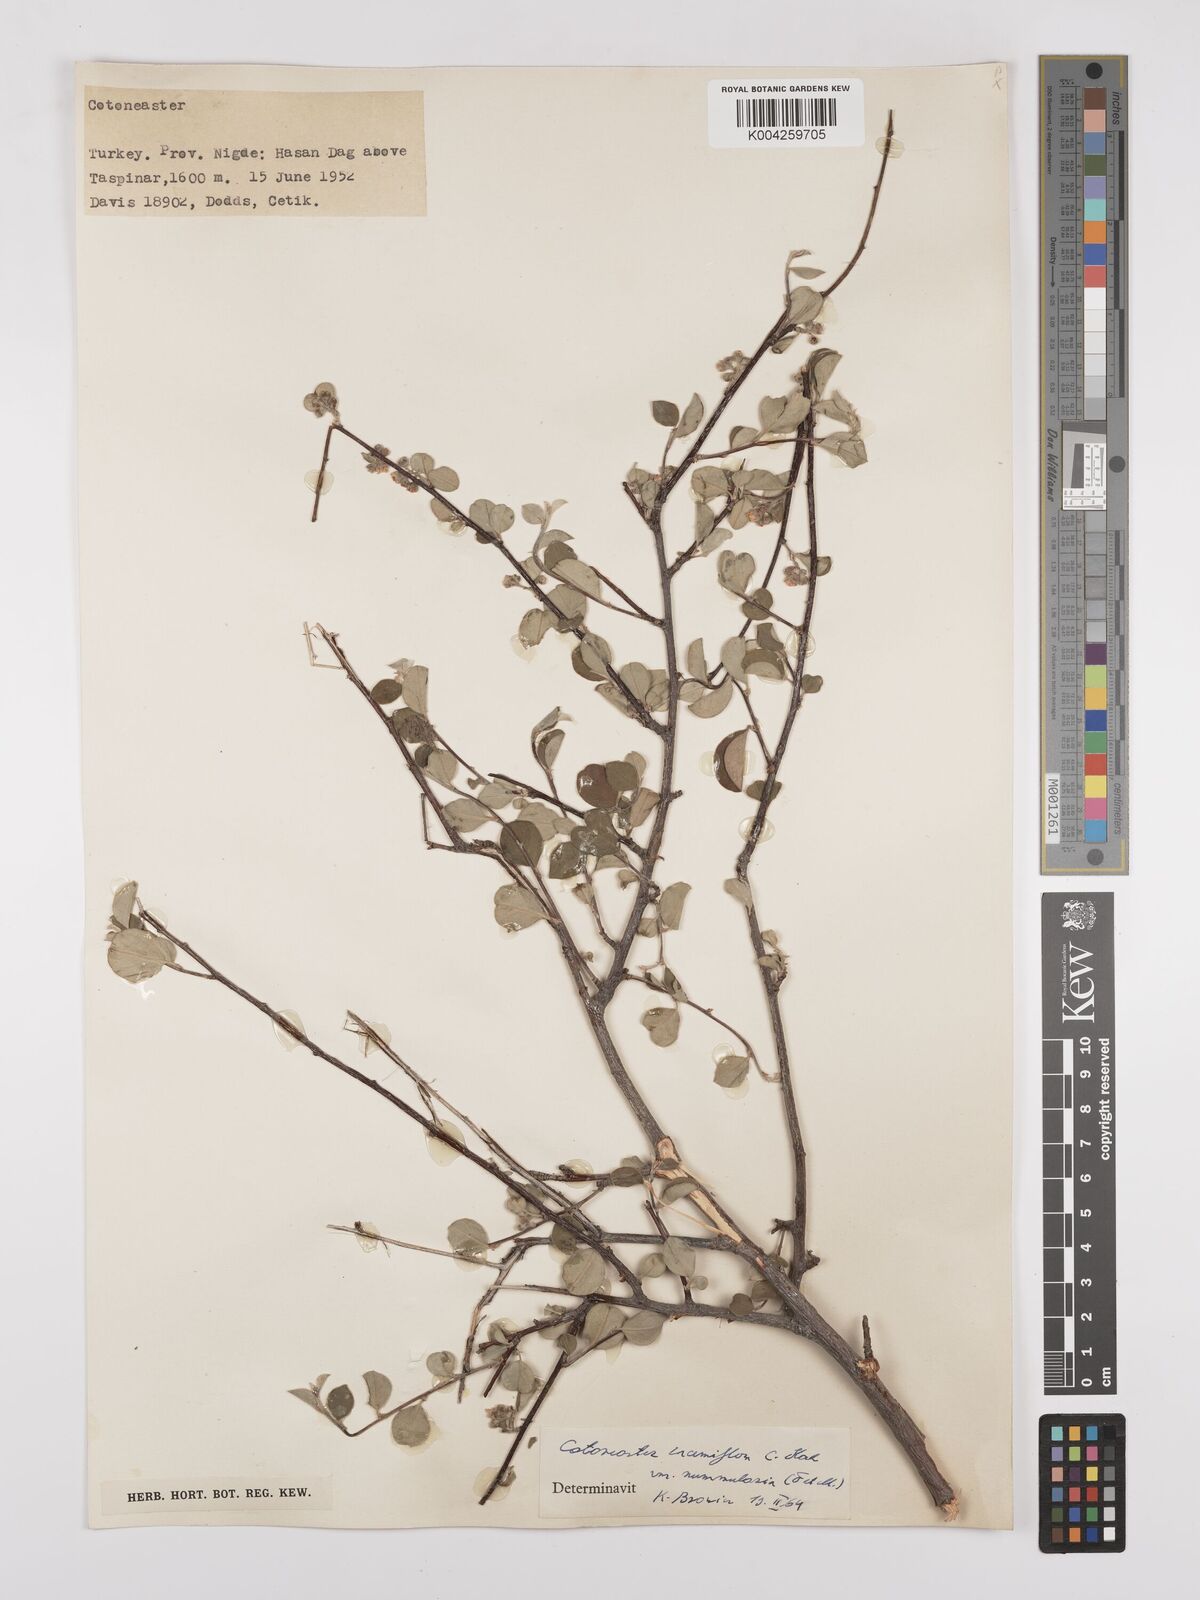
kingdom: Plantae
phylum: Tracheophyta
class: Magnoliopsida
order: Rosales
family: Rosaceae
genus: Cotoneaster
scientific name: Cotoneaster racemiflorus
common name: Cluster-flower cotoneaster
